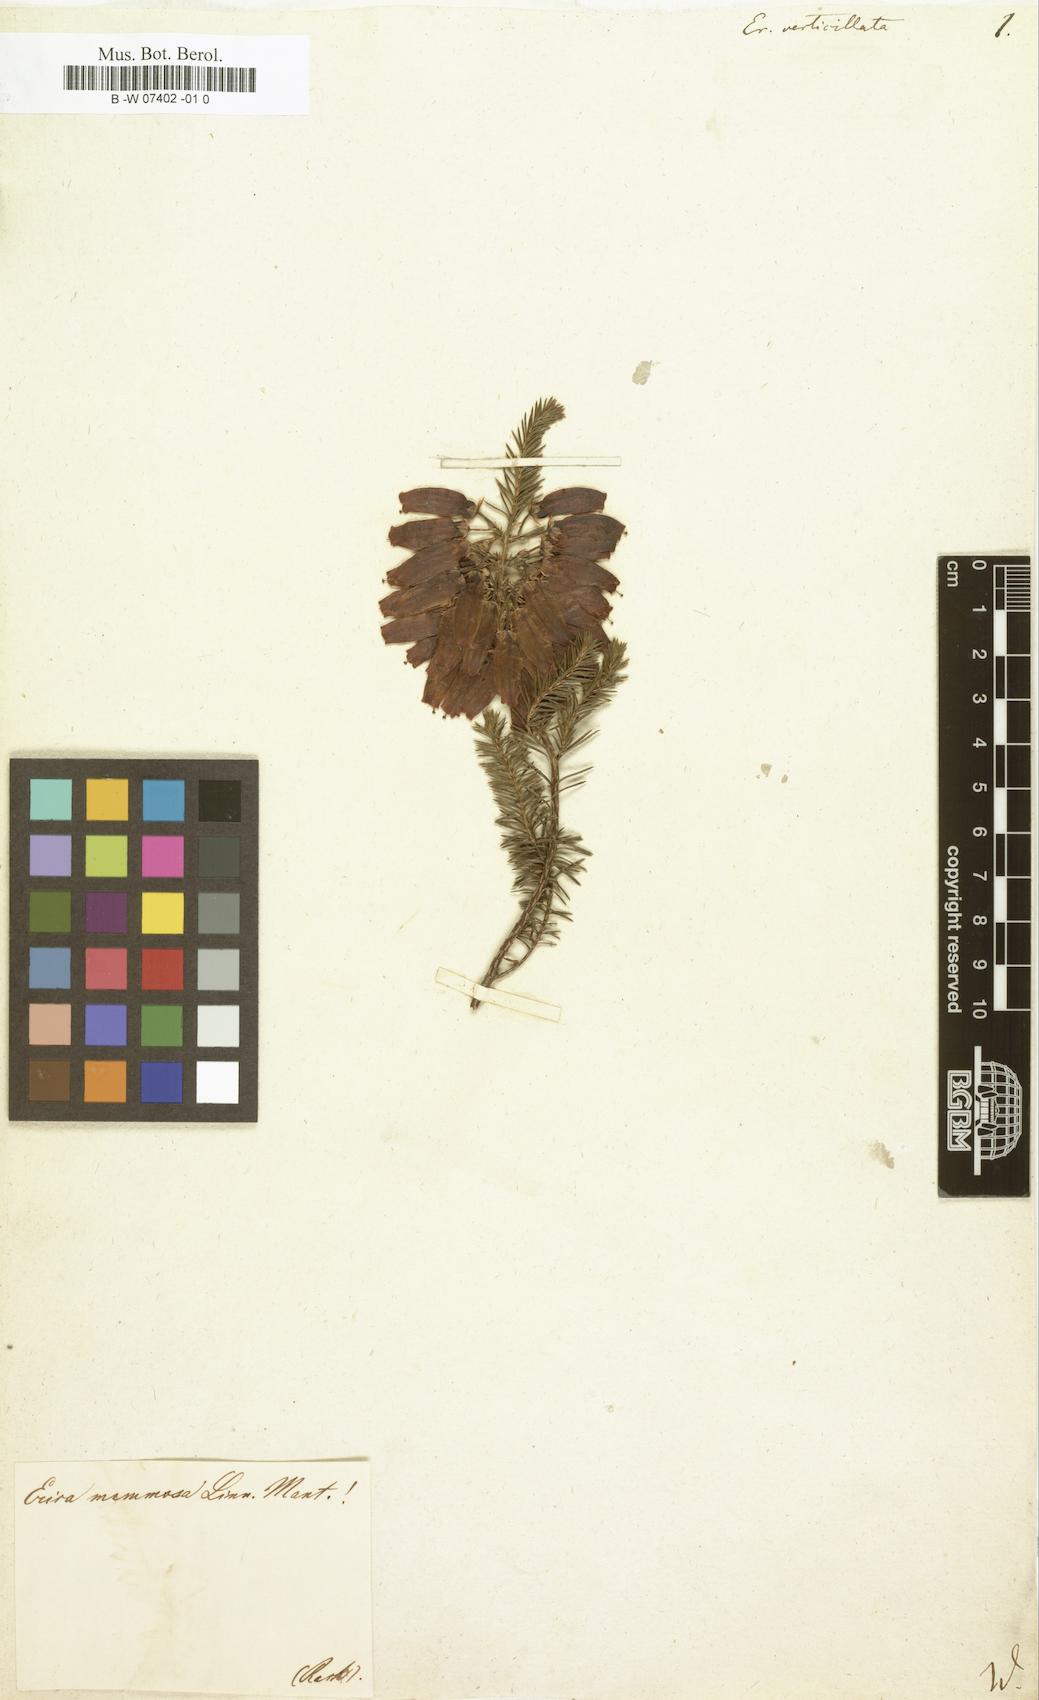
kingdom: Plantae
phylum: Tracheophyta
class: Magnoliopsida
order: Ericales
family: Ericaceae
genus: Erica
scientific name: Erica verticillata
